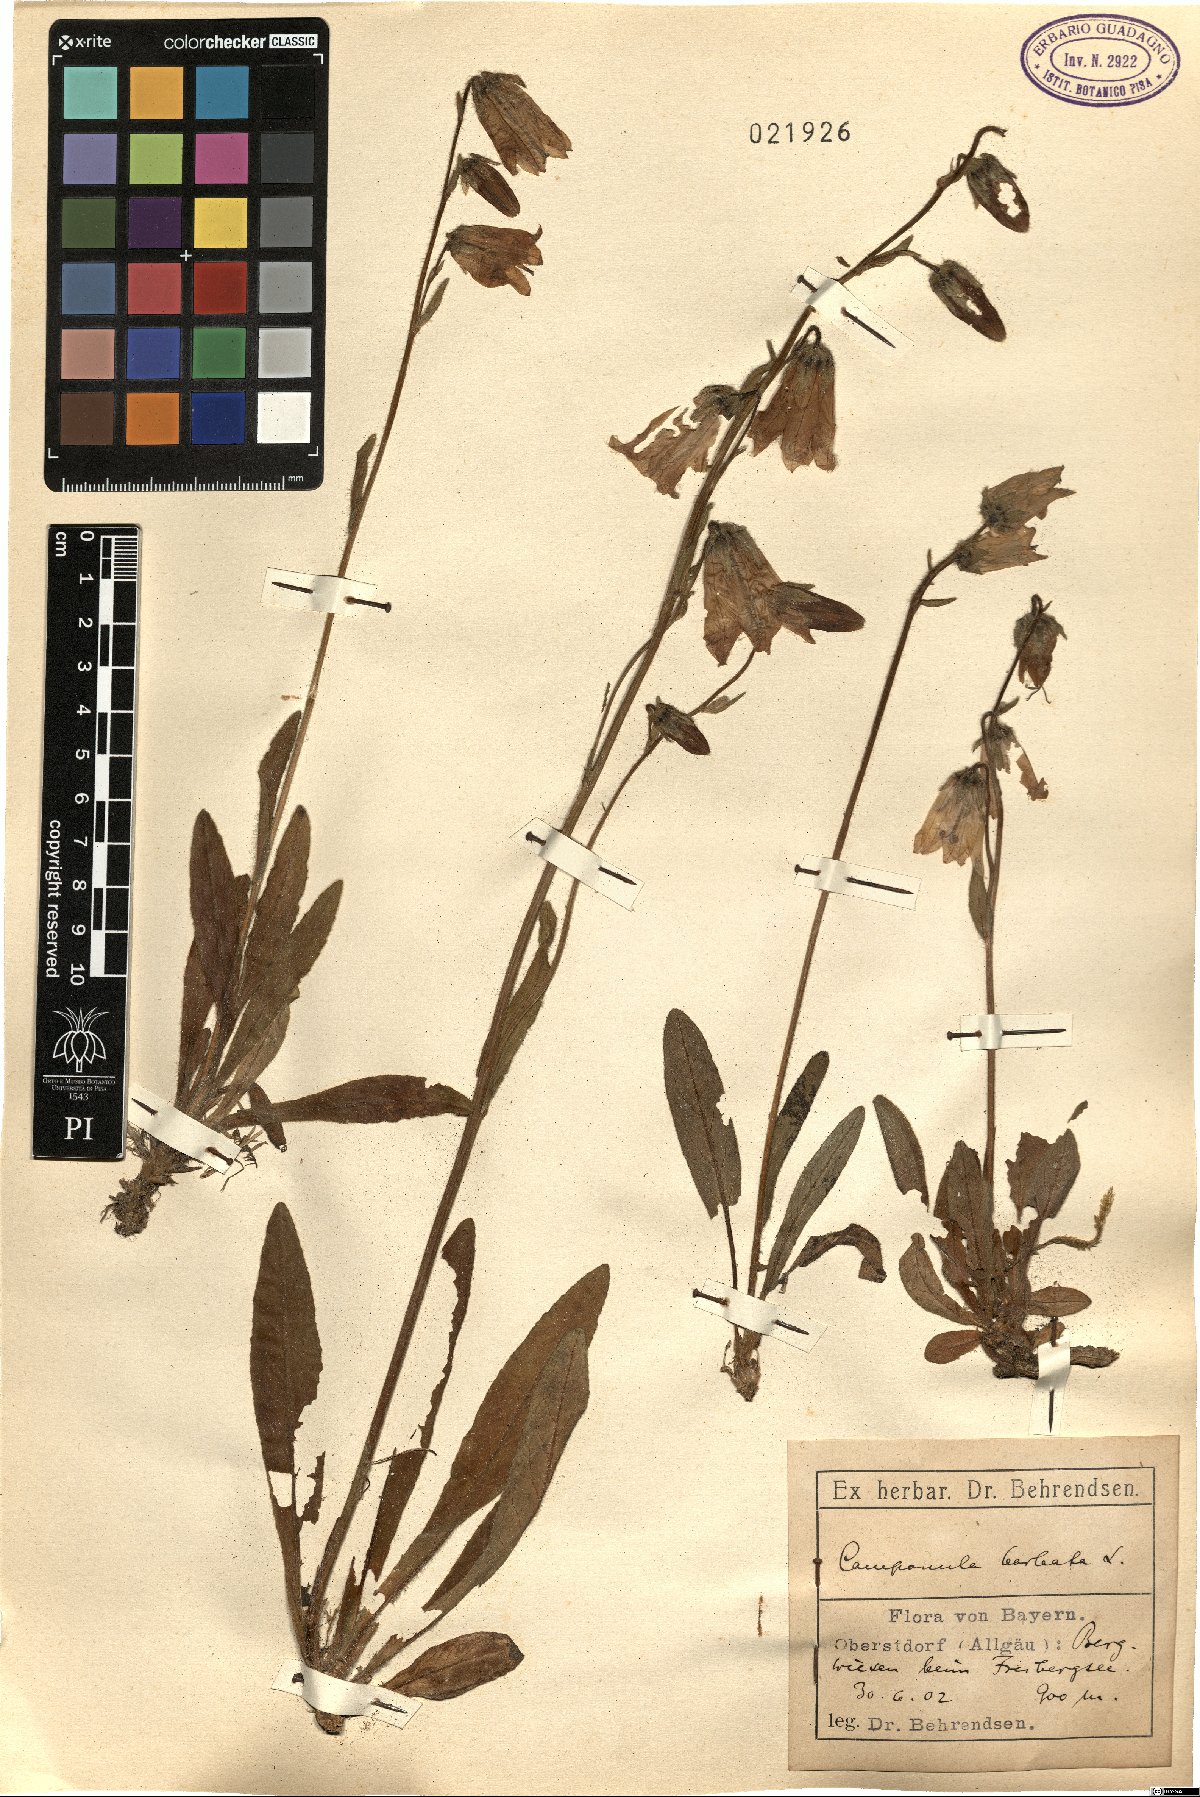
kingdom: Plantae
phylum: Tracheophyta
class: Magnoliopsida
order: Asterales
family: Campanulaceae
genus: Campanula
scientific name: Campanula barbata
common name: Bearded bellflower
